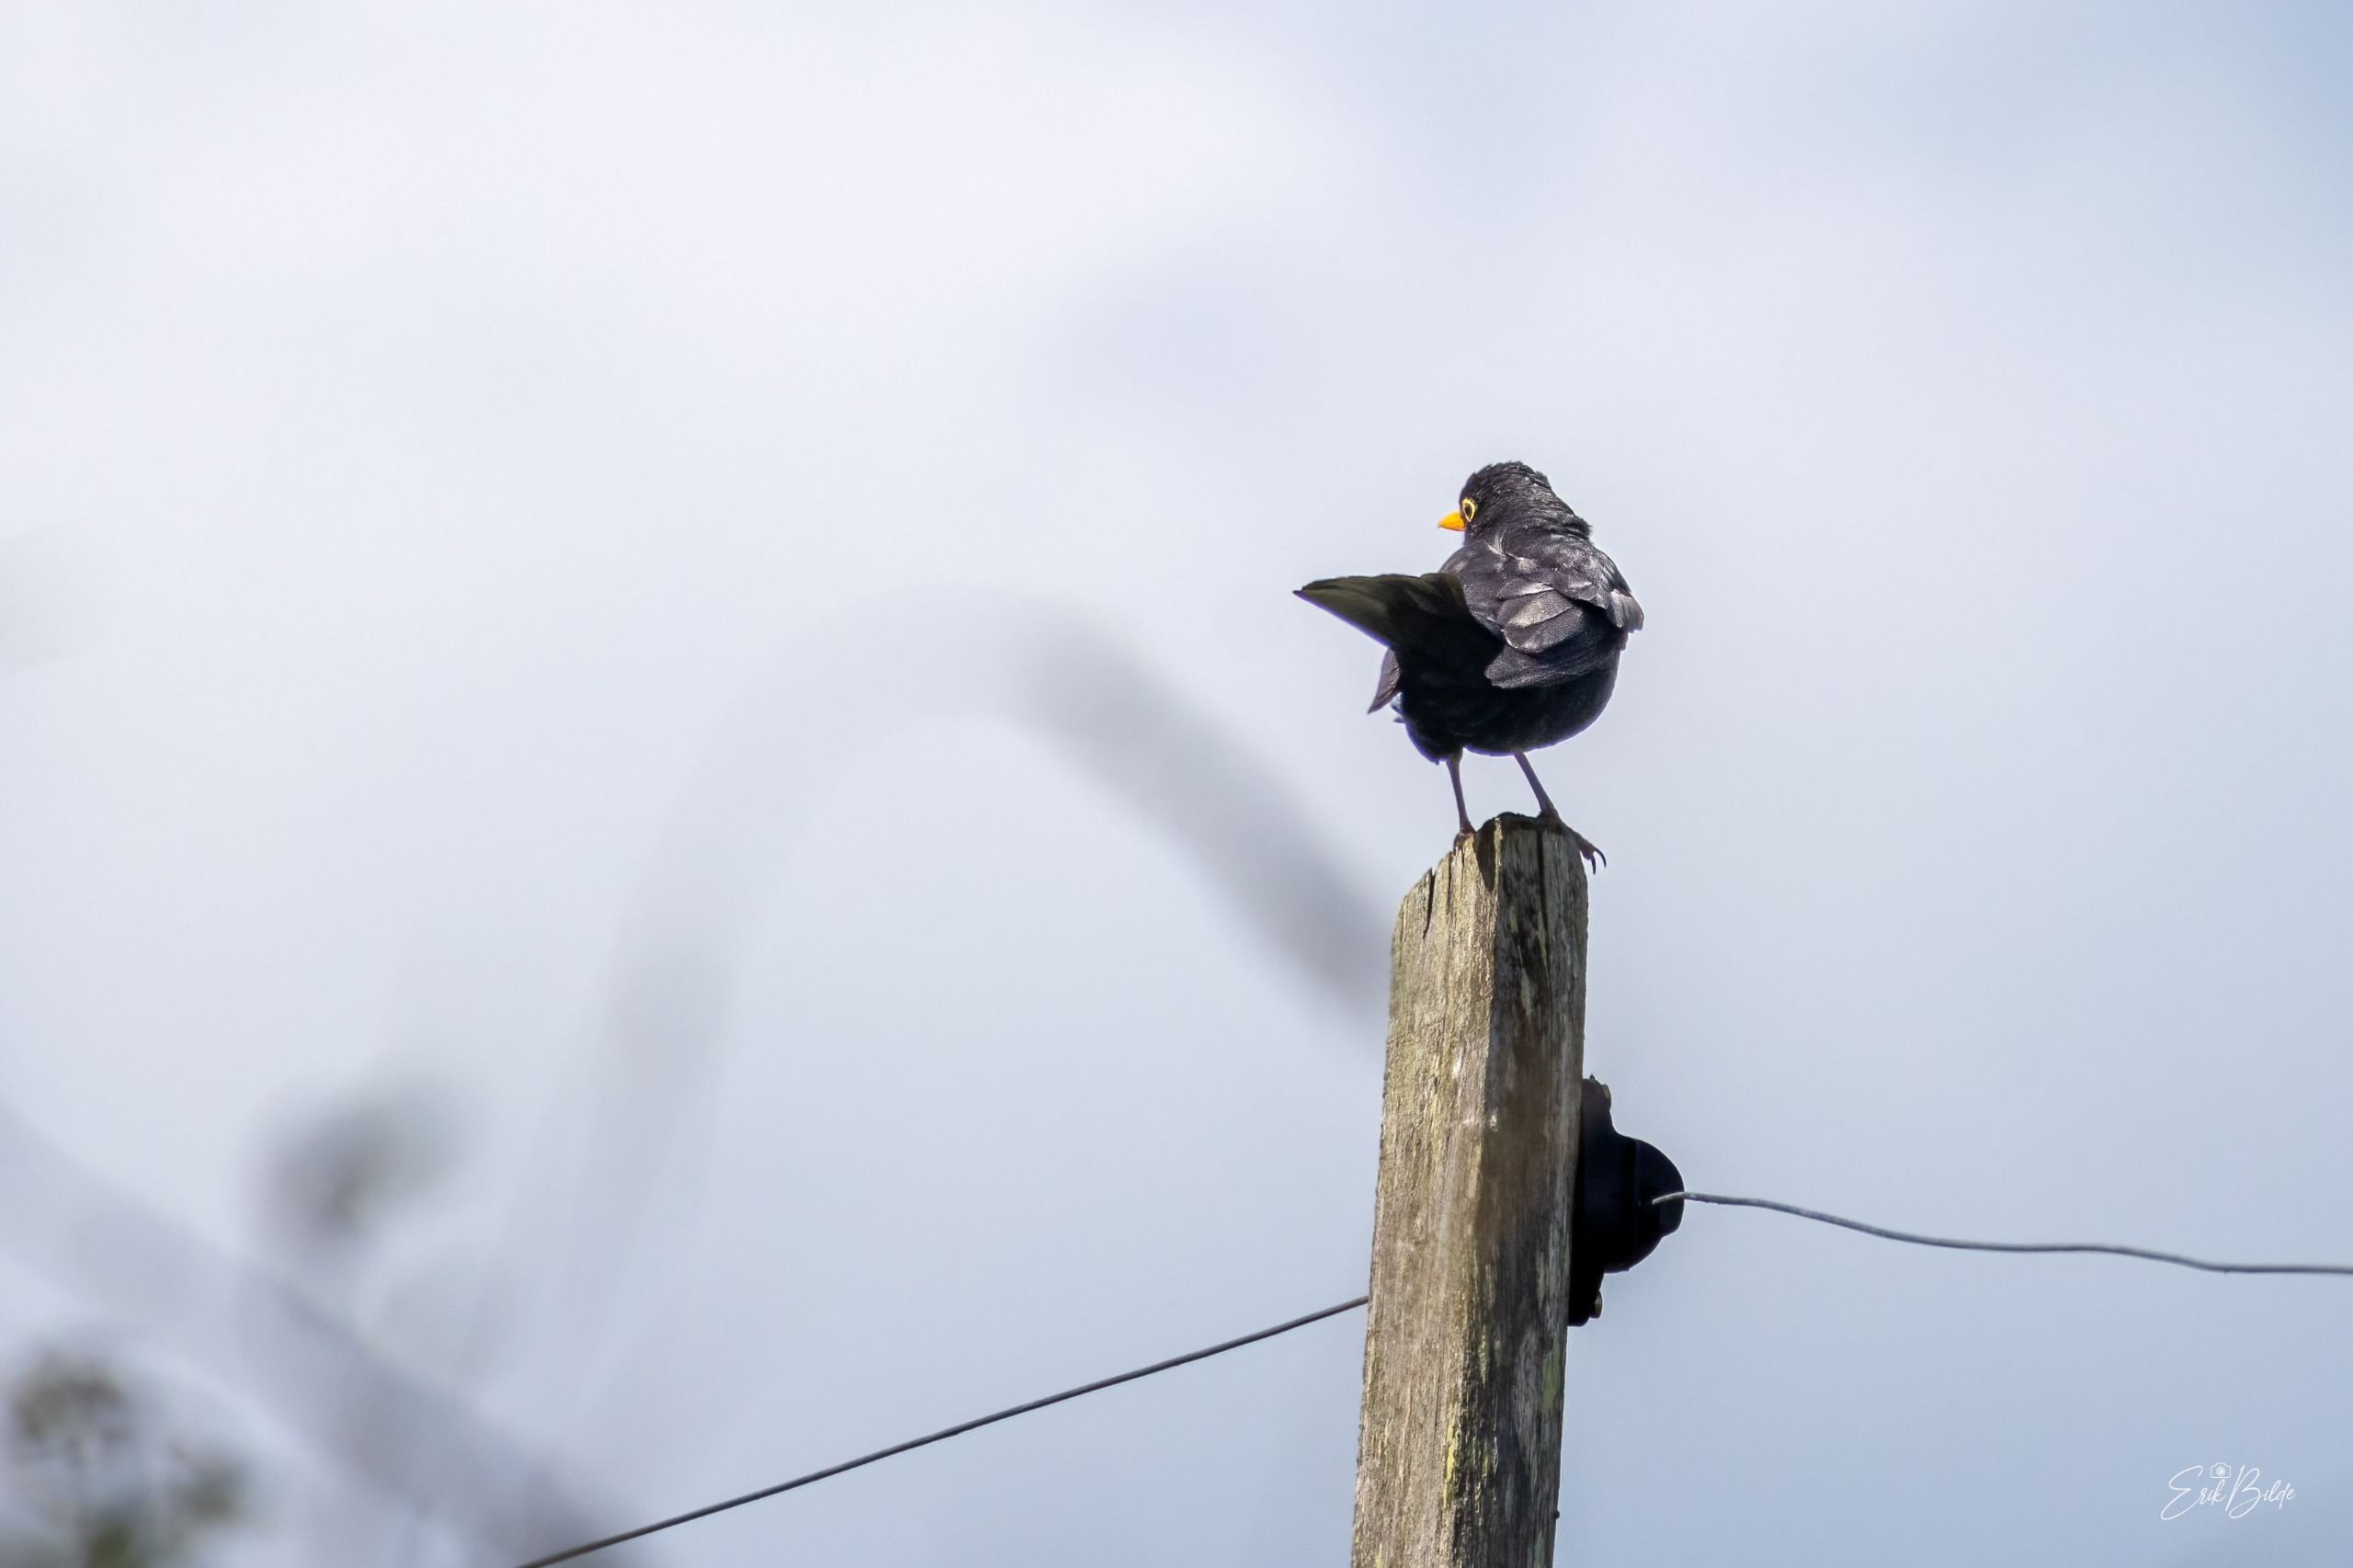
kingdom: Animalia
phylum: Chordata
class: Aves
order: Passeriformes
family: Turdidae
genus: Turdus
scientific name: Turdus merula
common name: Solsort
